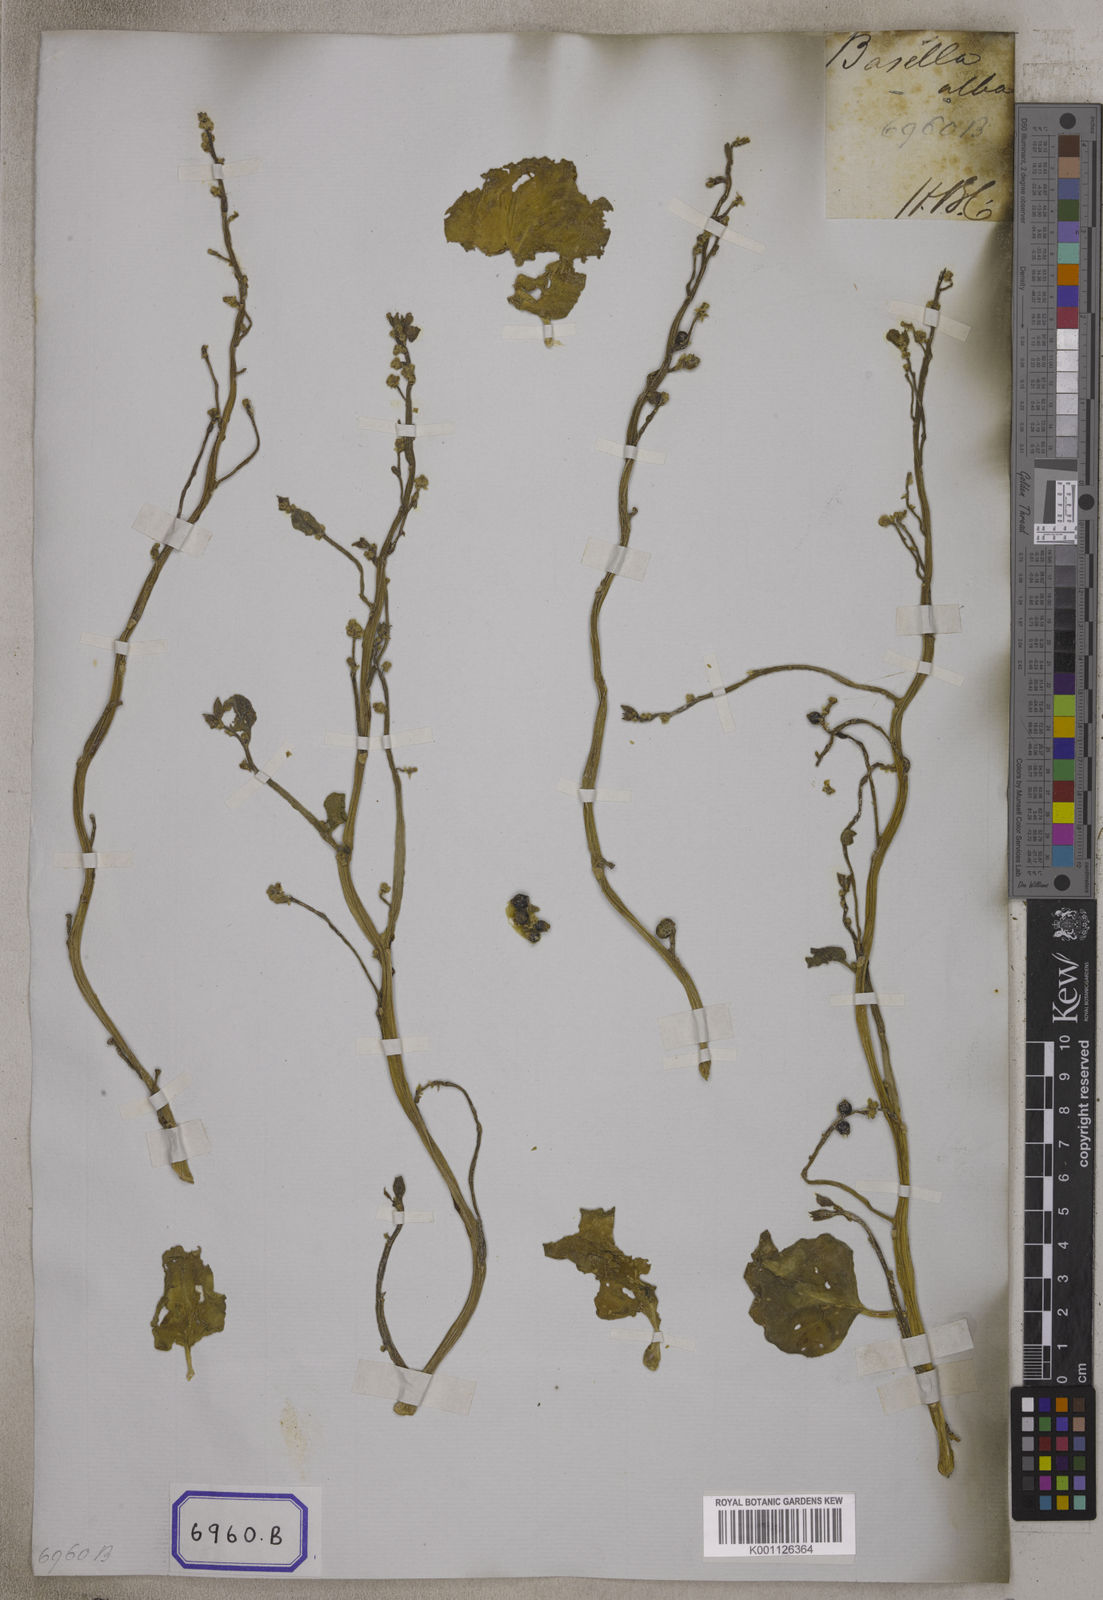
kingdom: Plantae
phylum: Tracheophyta
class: Magnoliopsida
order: Caryophyllales
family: Basellaceae
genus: Basella
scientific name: Basella alba
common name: Indian spinach
